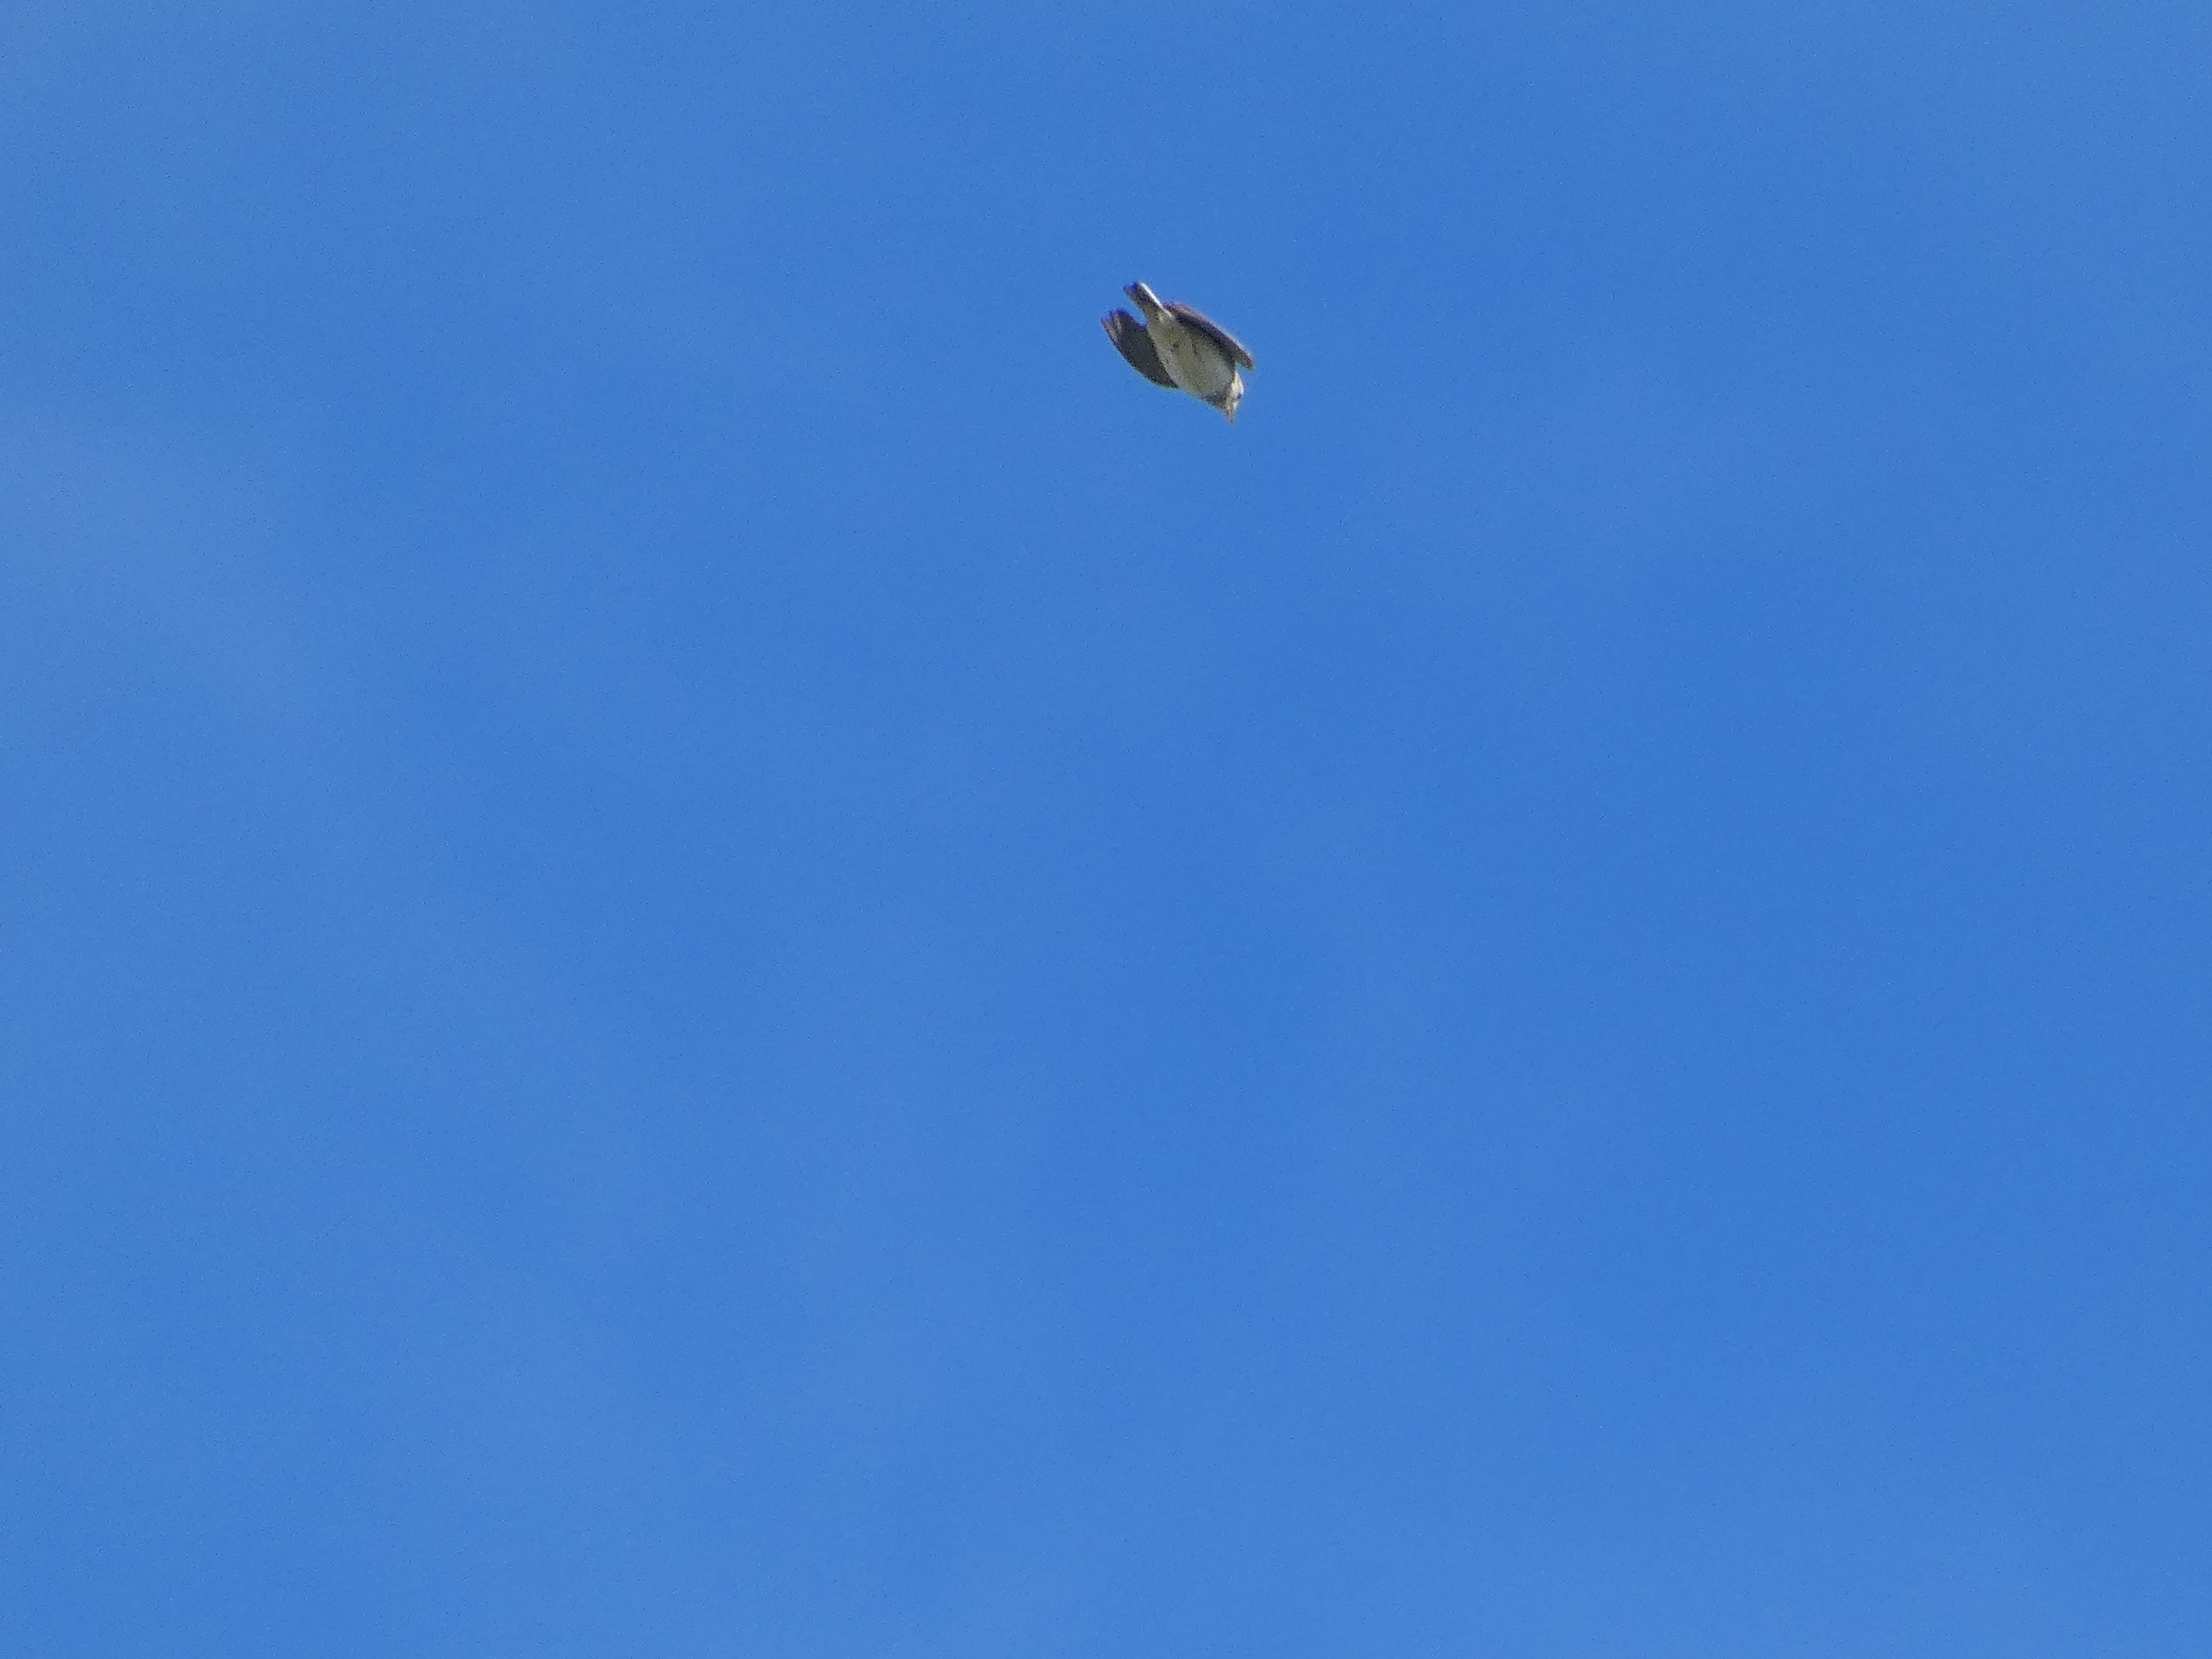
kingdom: Animalia
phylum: Chordata
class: Aves
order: Passeriformes
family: Alaudidae
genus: Lullula
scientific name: Lullula arborea
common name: Hedelærke
